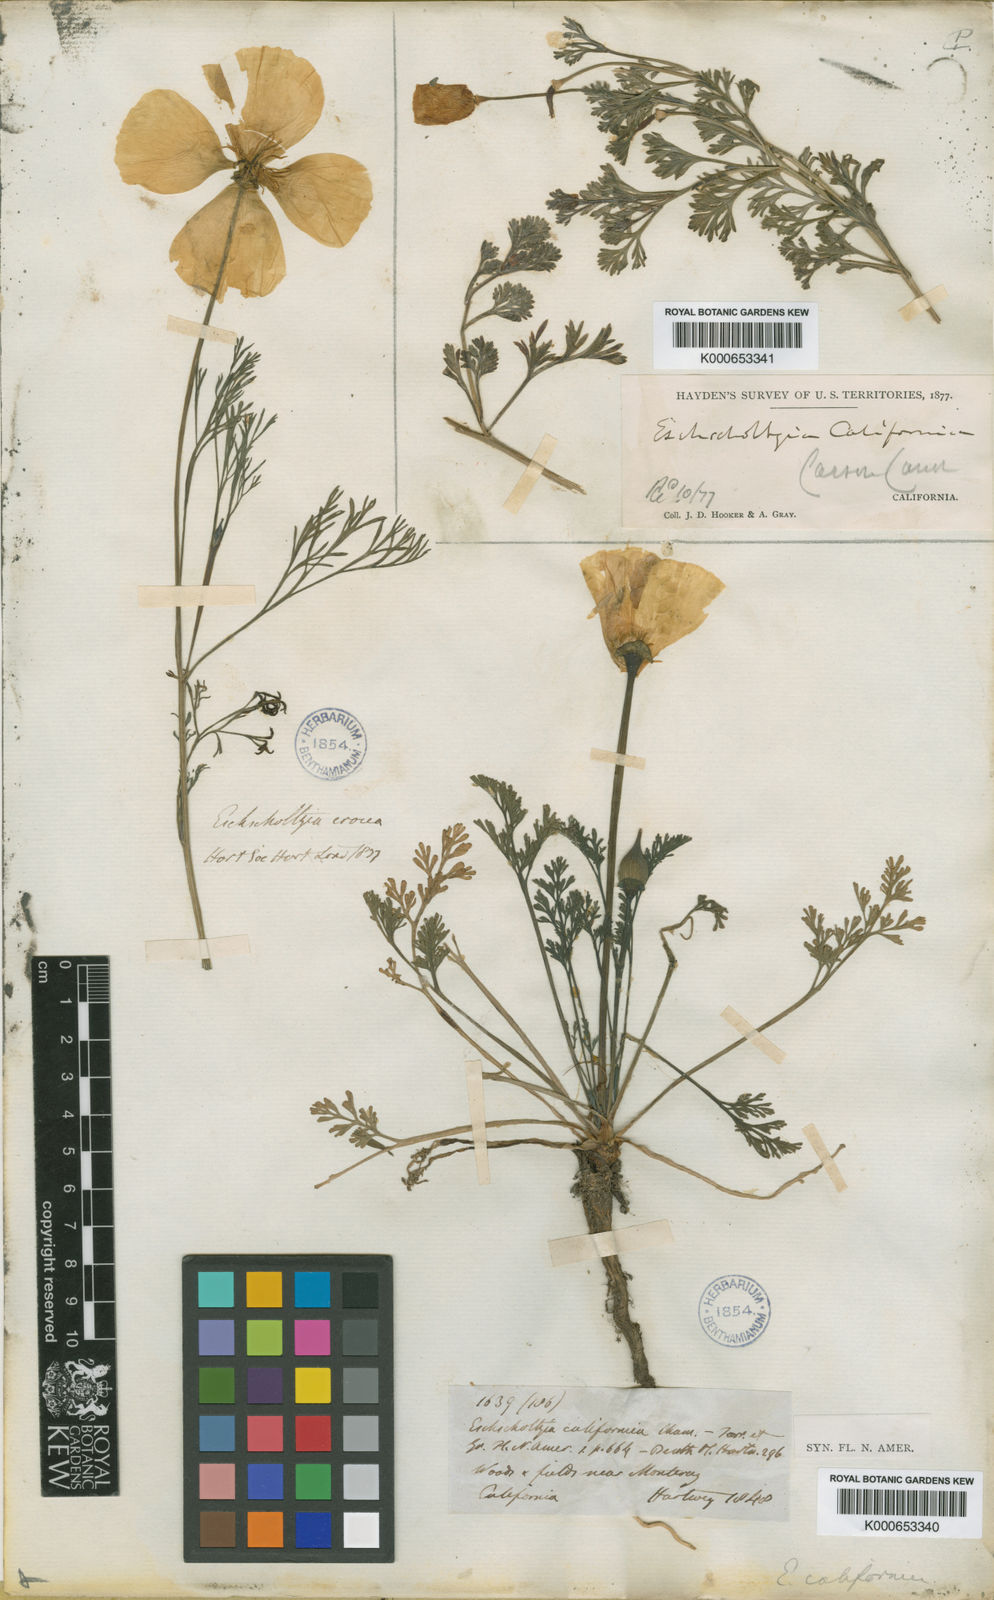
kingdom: Plantae
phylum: Tracheophyta
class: Magnoliopsida
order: Ranunculales
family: Papaveraceae
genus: Eschscholzia
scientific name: Eschscholzia californica
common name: California poppy
